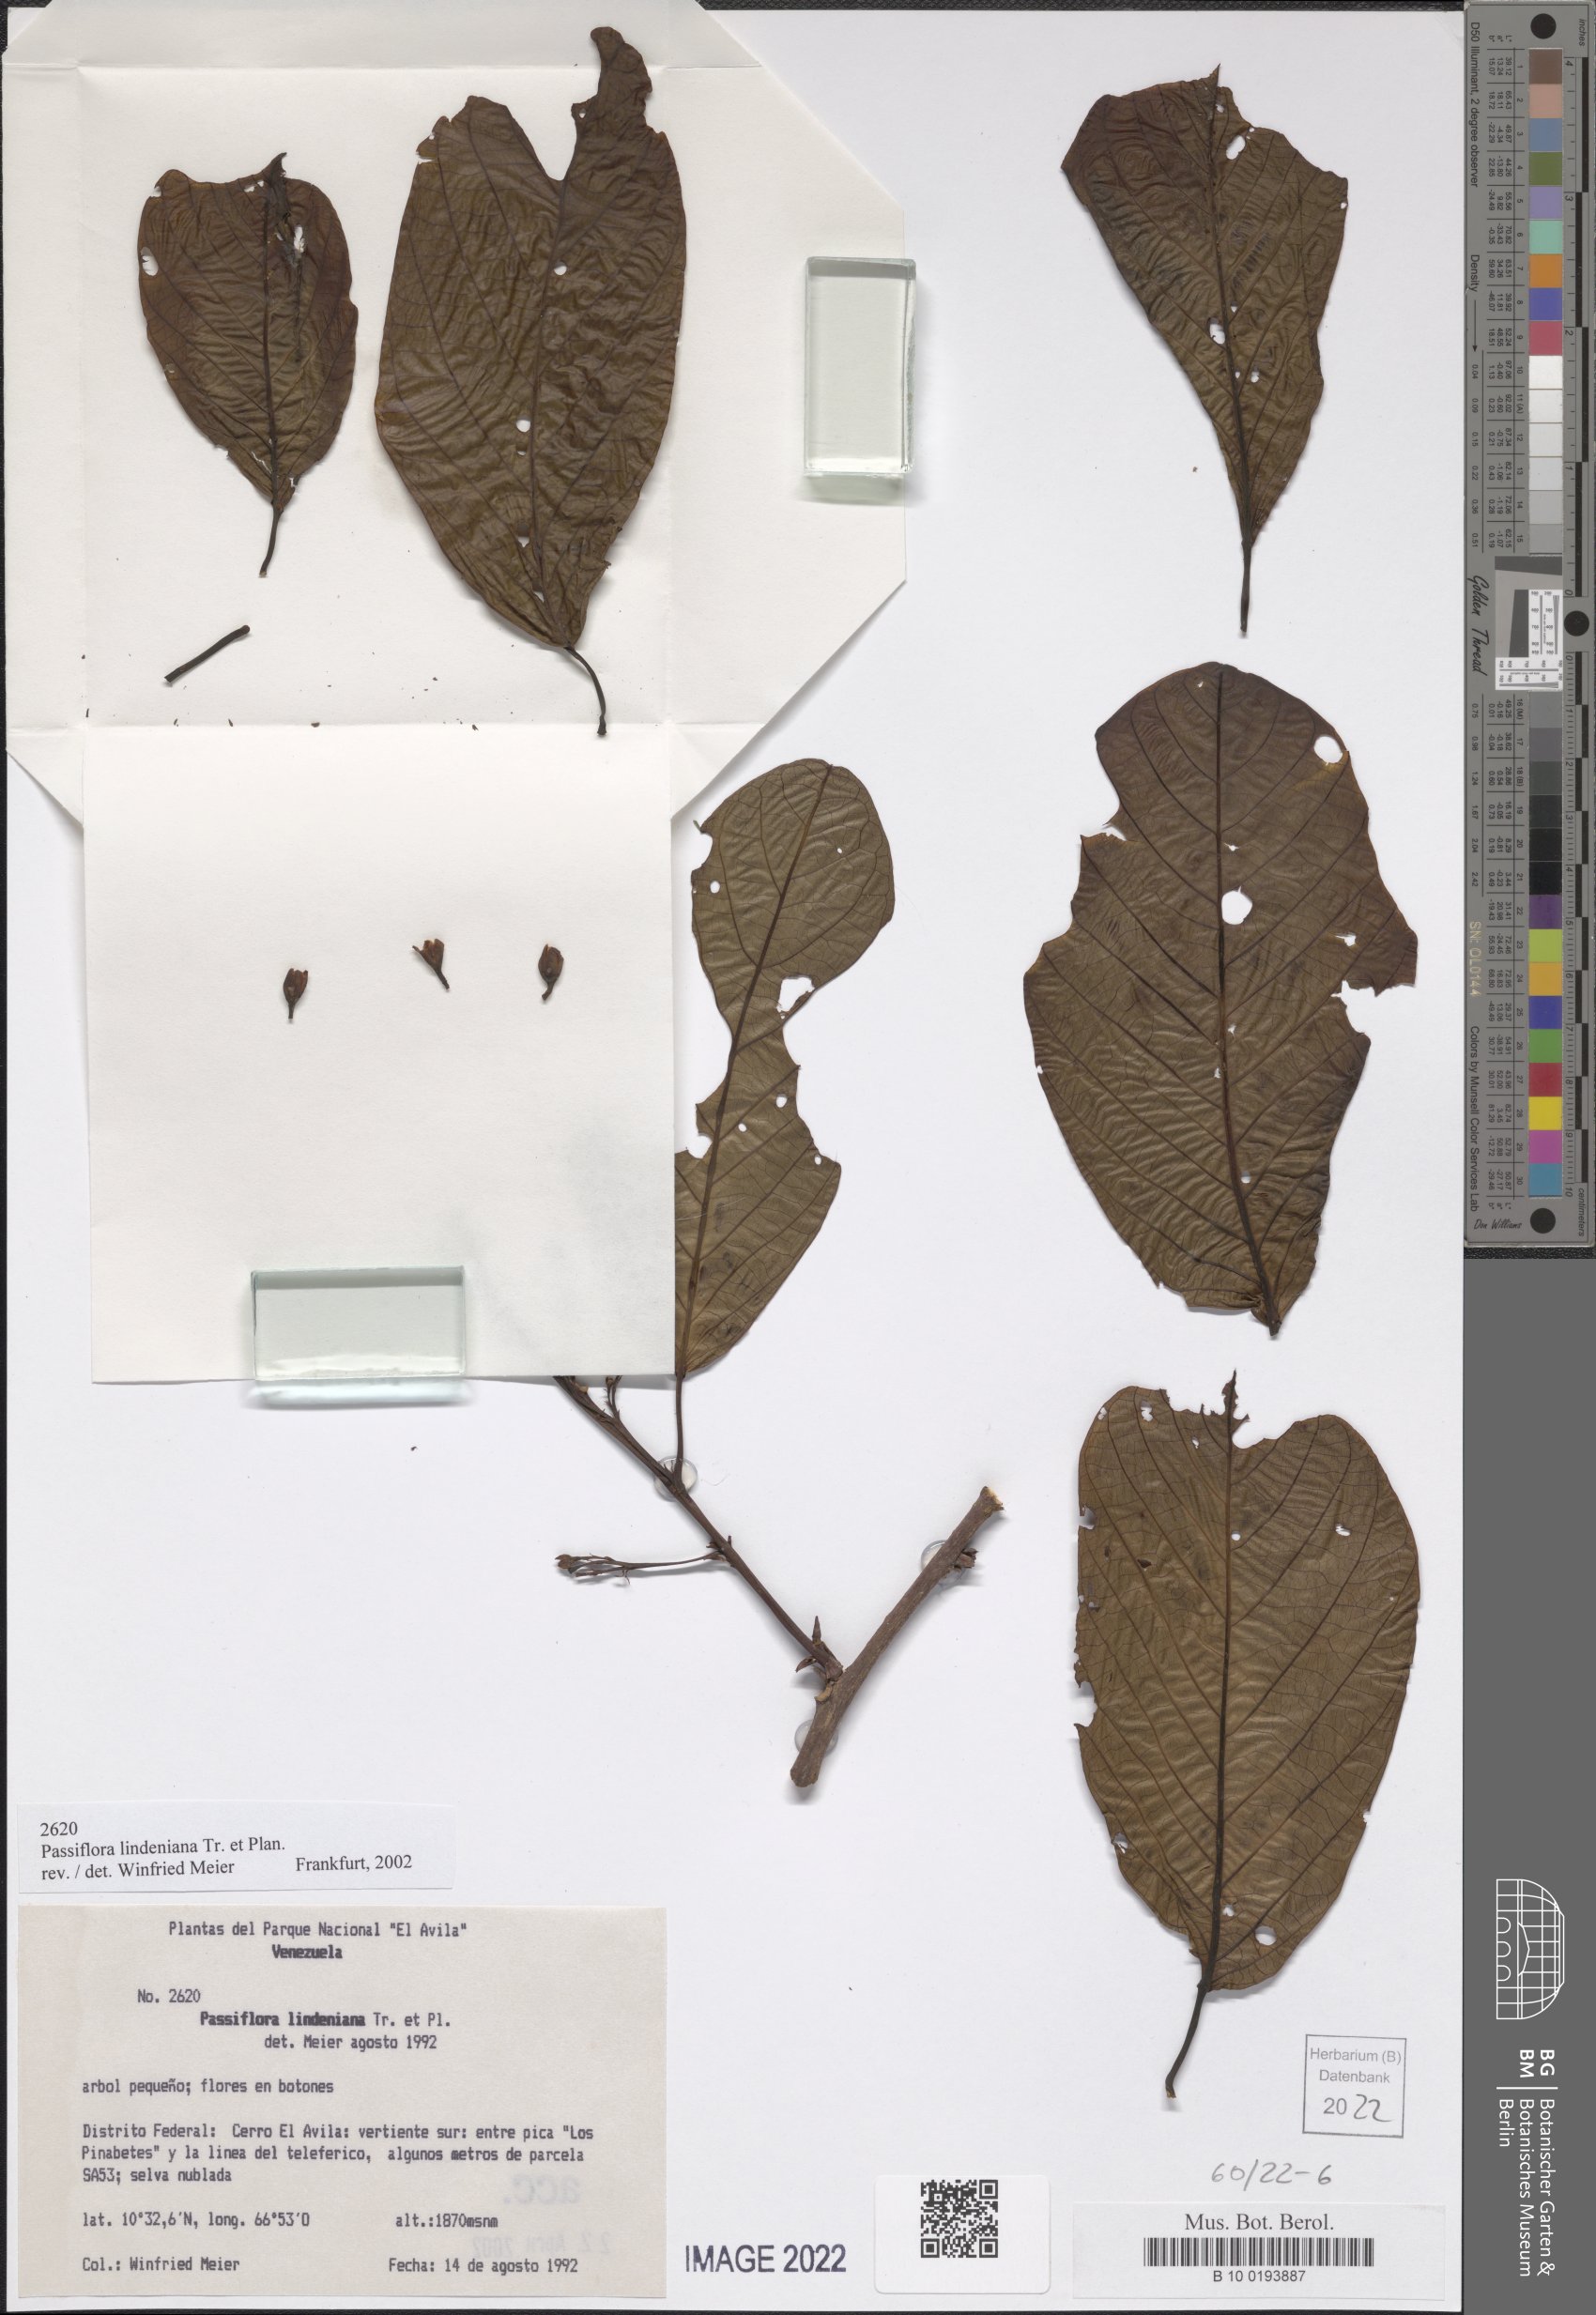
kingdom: Plantae
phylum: Tracheophyta
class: Magnoliopsida
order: Malpighiales
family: Passifloraceae
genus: Passiflora
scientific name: Passiflora lindeniana
